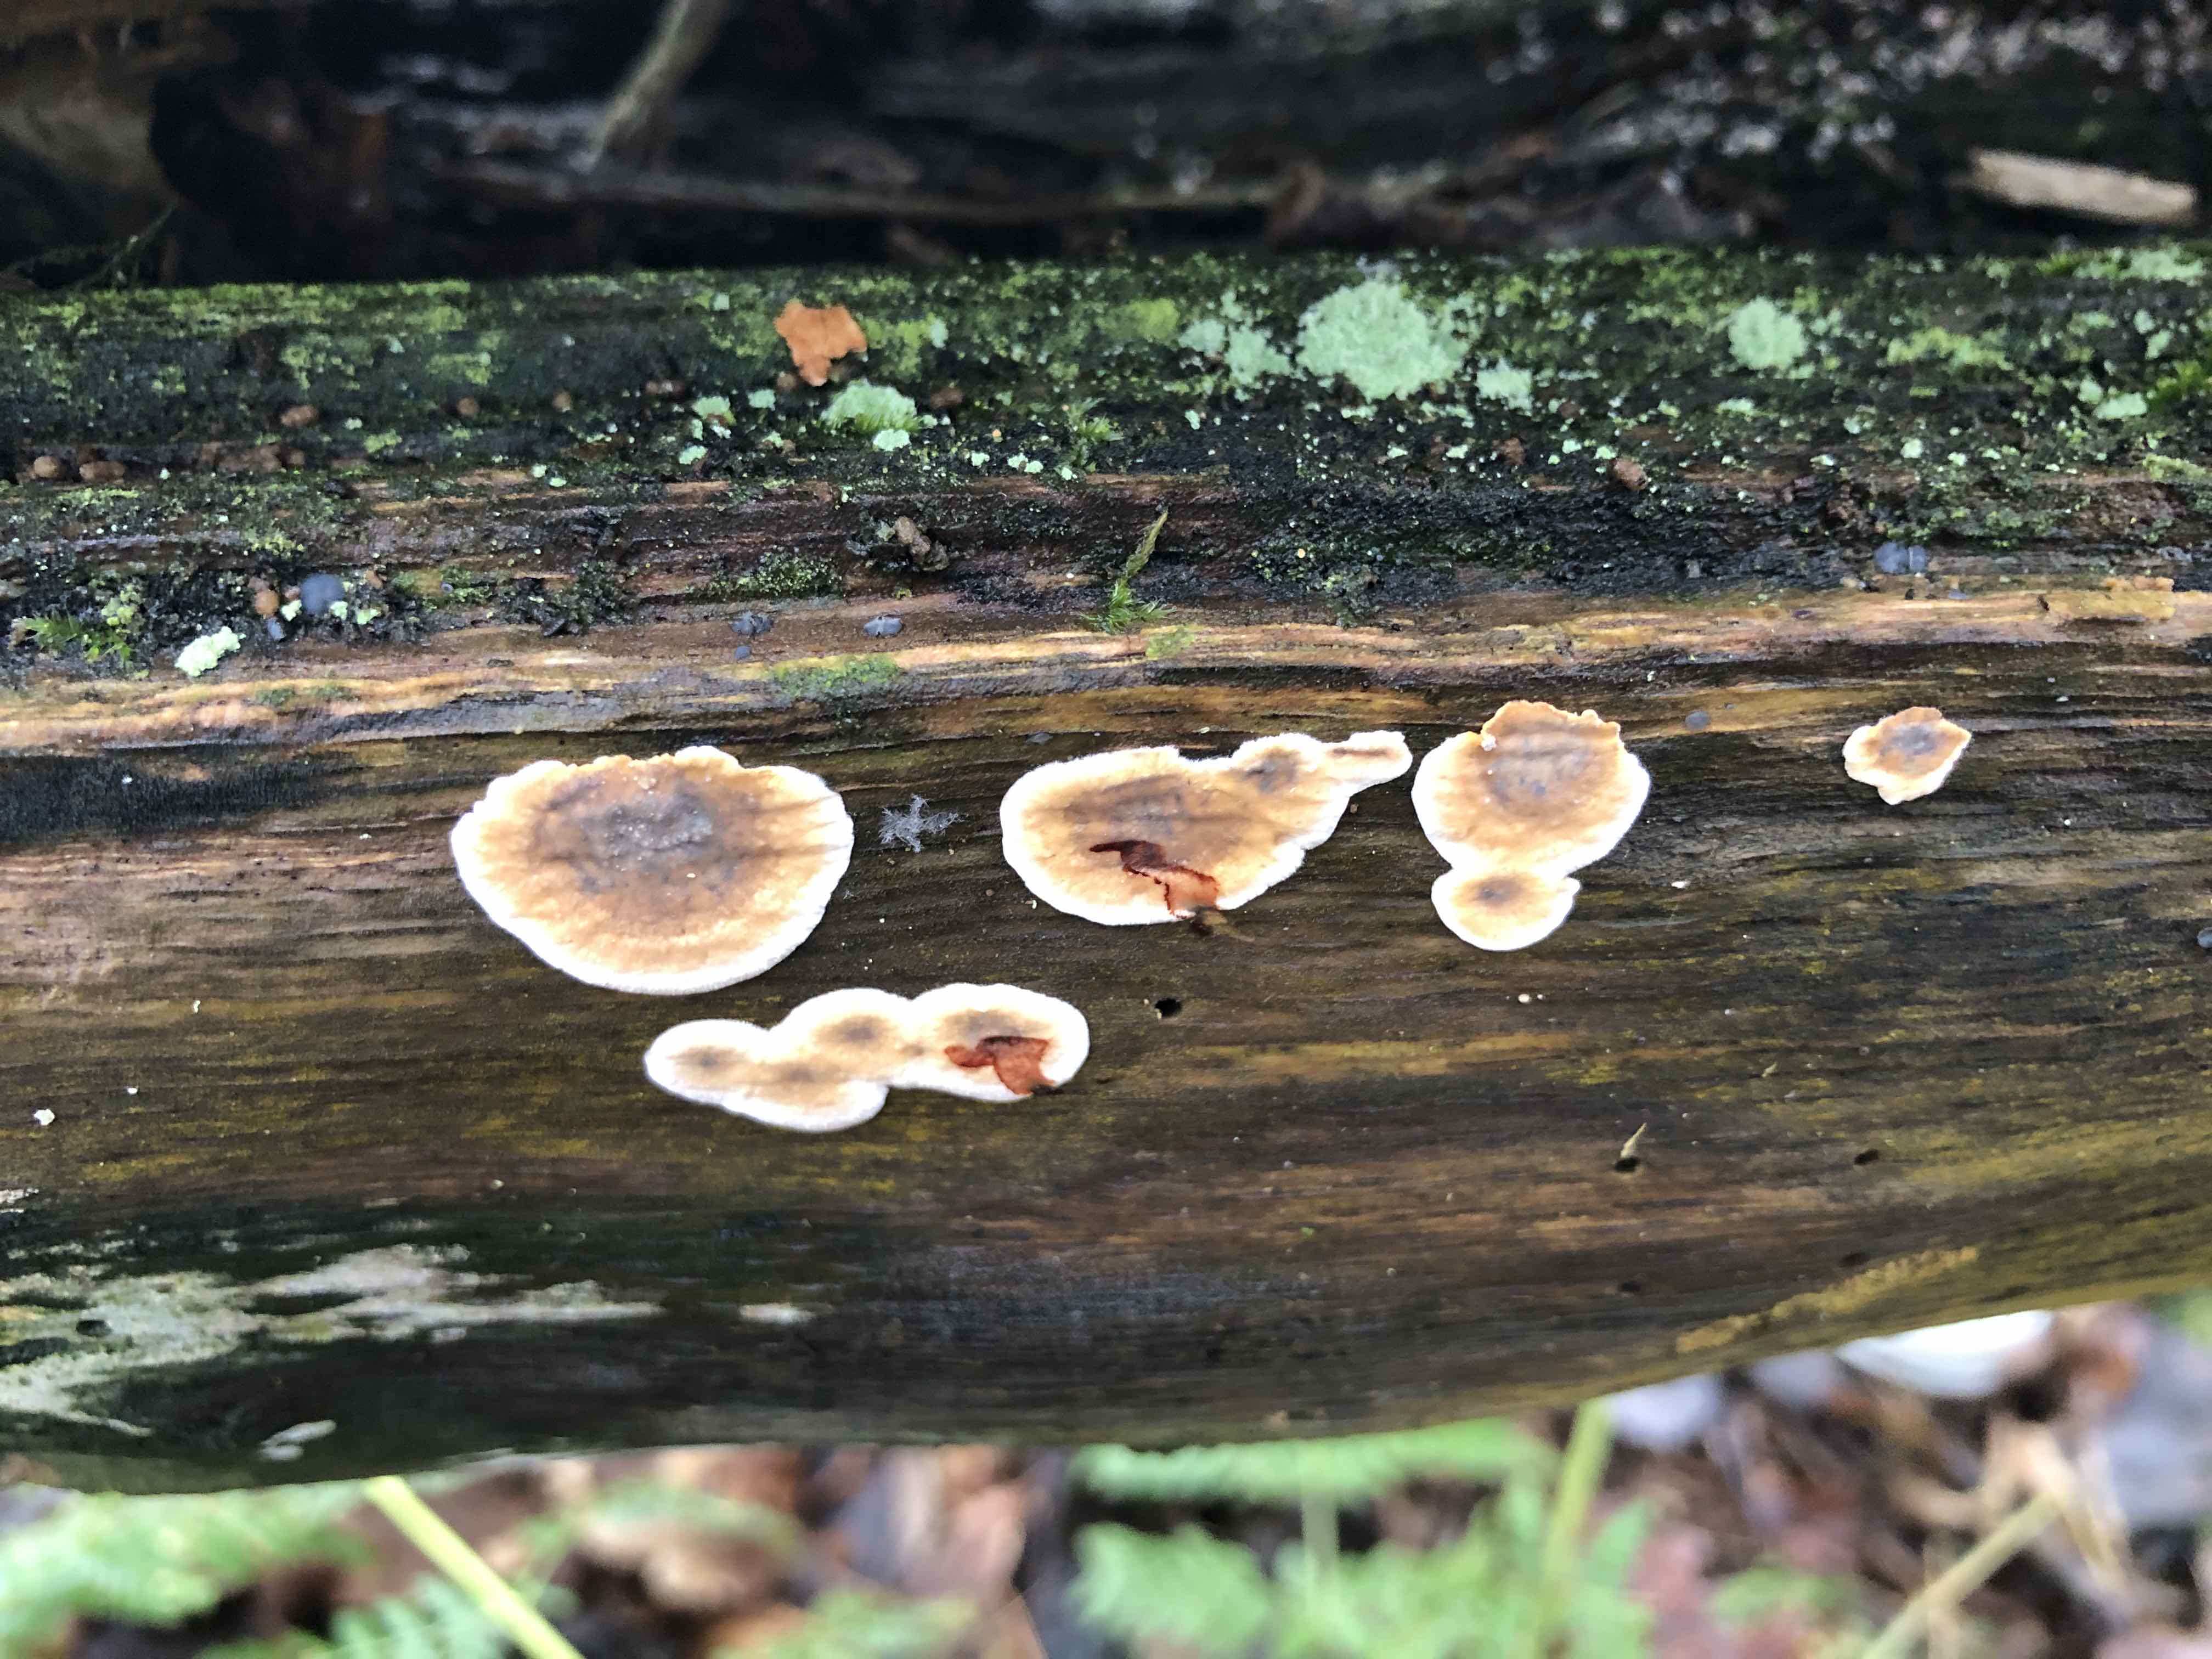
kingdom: Fungi
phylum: Basidiomycota
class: Agaricomycetes
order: Russulales
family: Stereaceae
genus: Stereum
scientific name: Stereum gausapatum
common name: tynd lædersvamp
